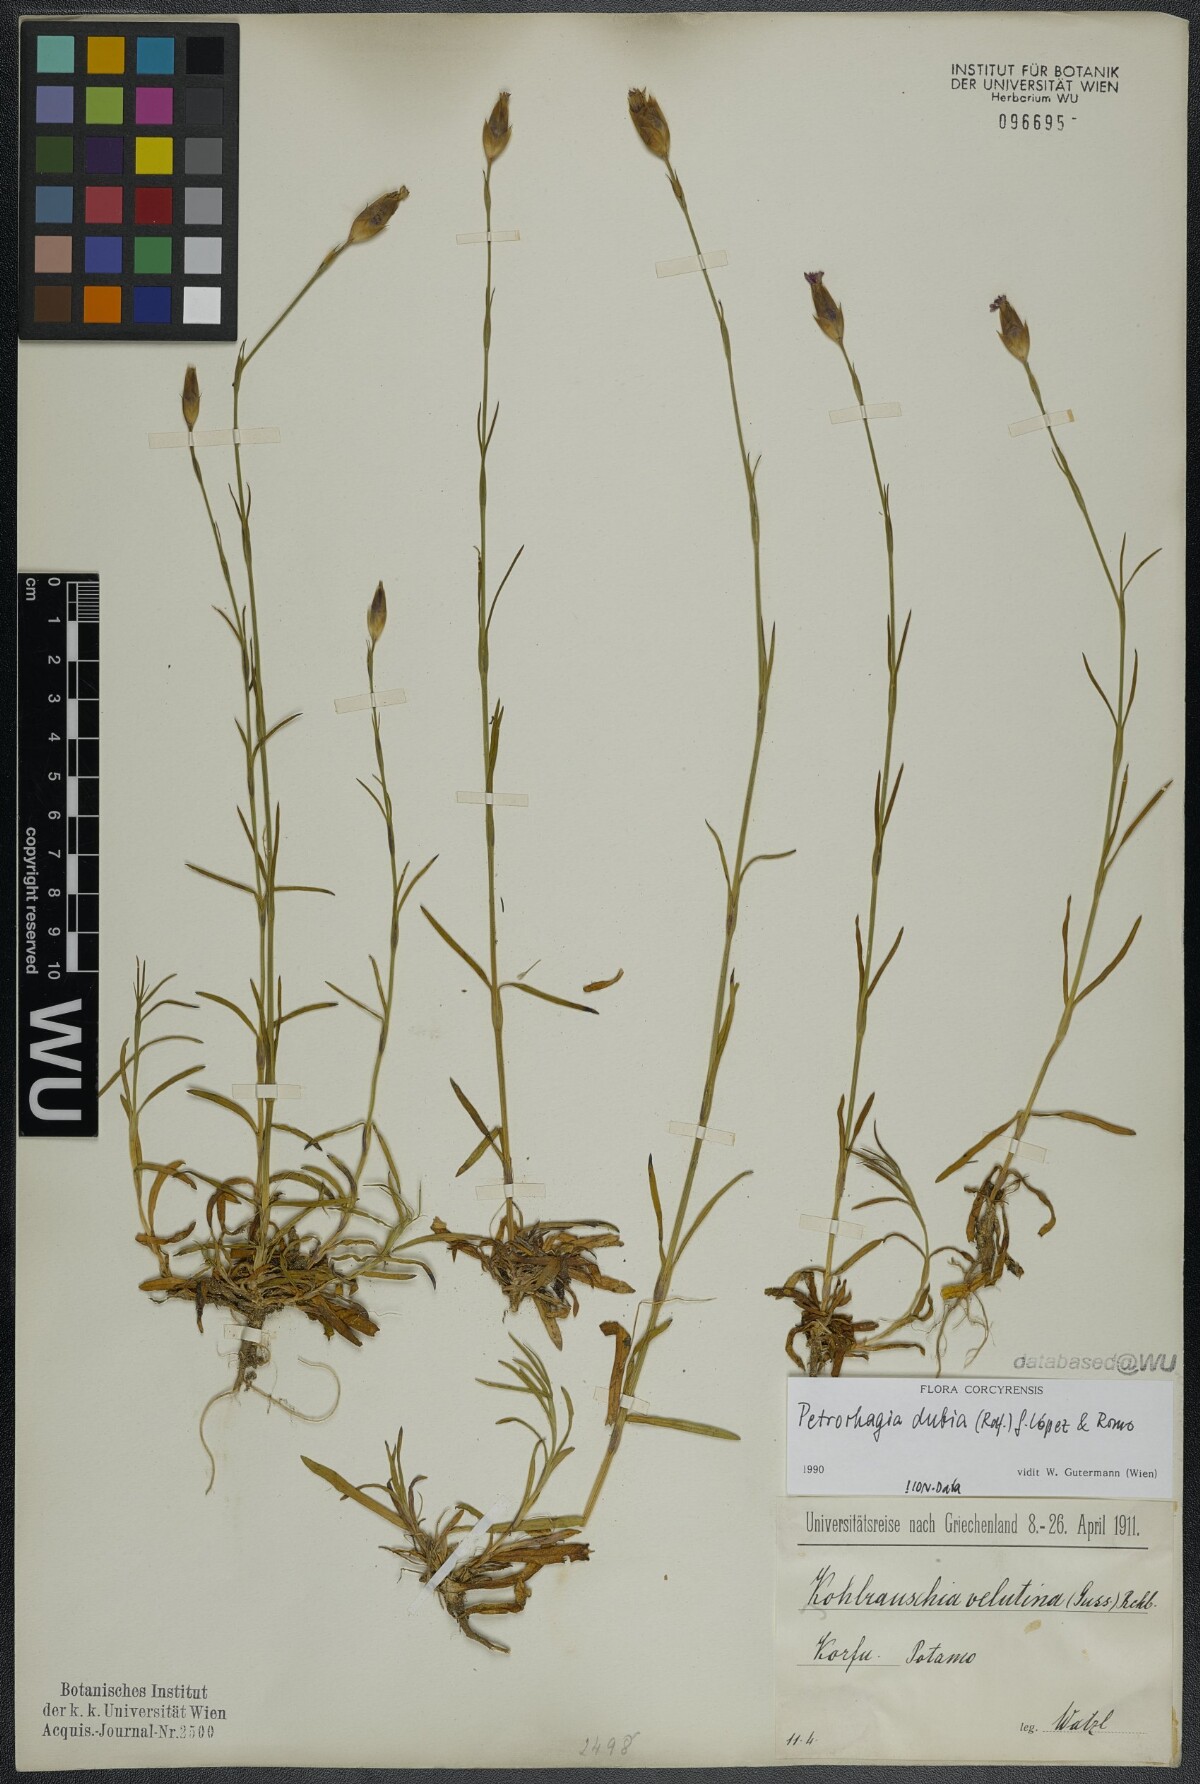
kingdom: Plantae
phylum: Tracheophyta
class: Magnoliopsida
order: Caryophyllales
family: Caryophyllaceae
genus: Petrorhagia
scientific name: Petrorhagia dubia
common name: Hairypink
